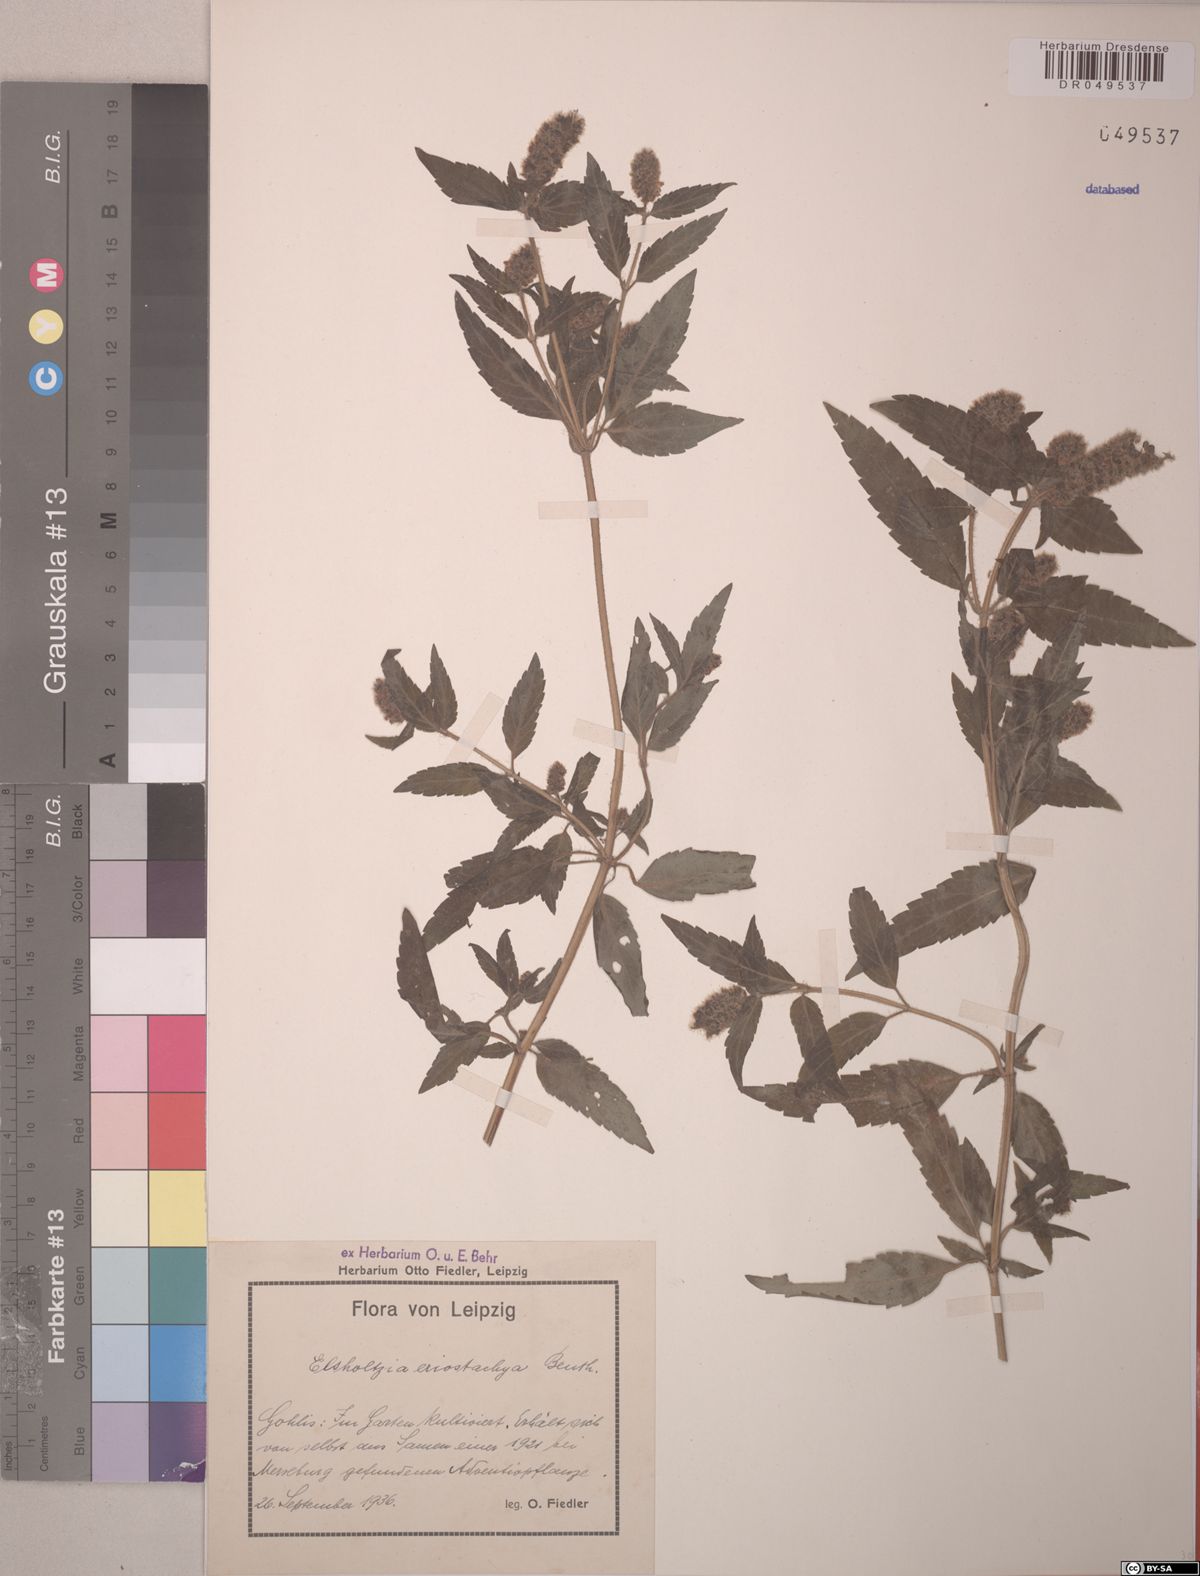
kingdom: Plantae
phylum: Tracheophyta
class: Magnoliopsida
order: Lamiales
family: Lamiaceae
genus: Elsholtzia
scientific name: Elsholtzia eriostachya
